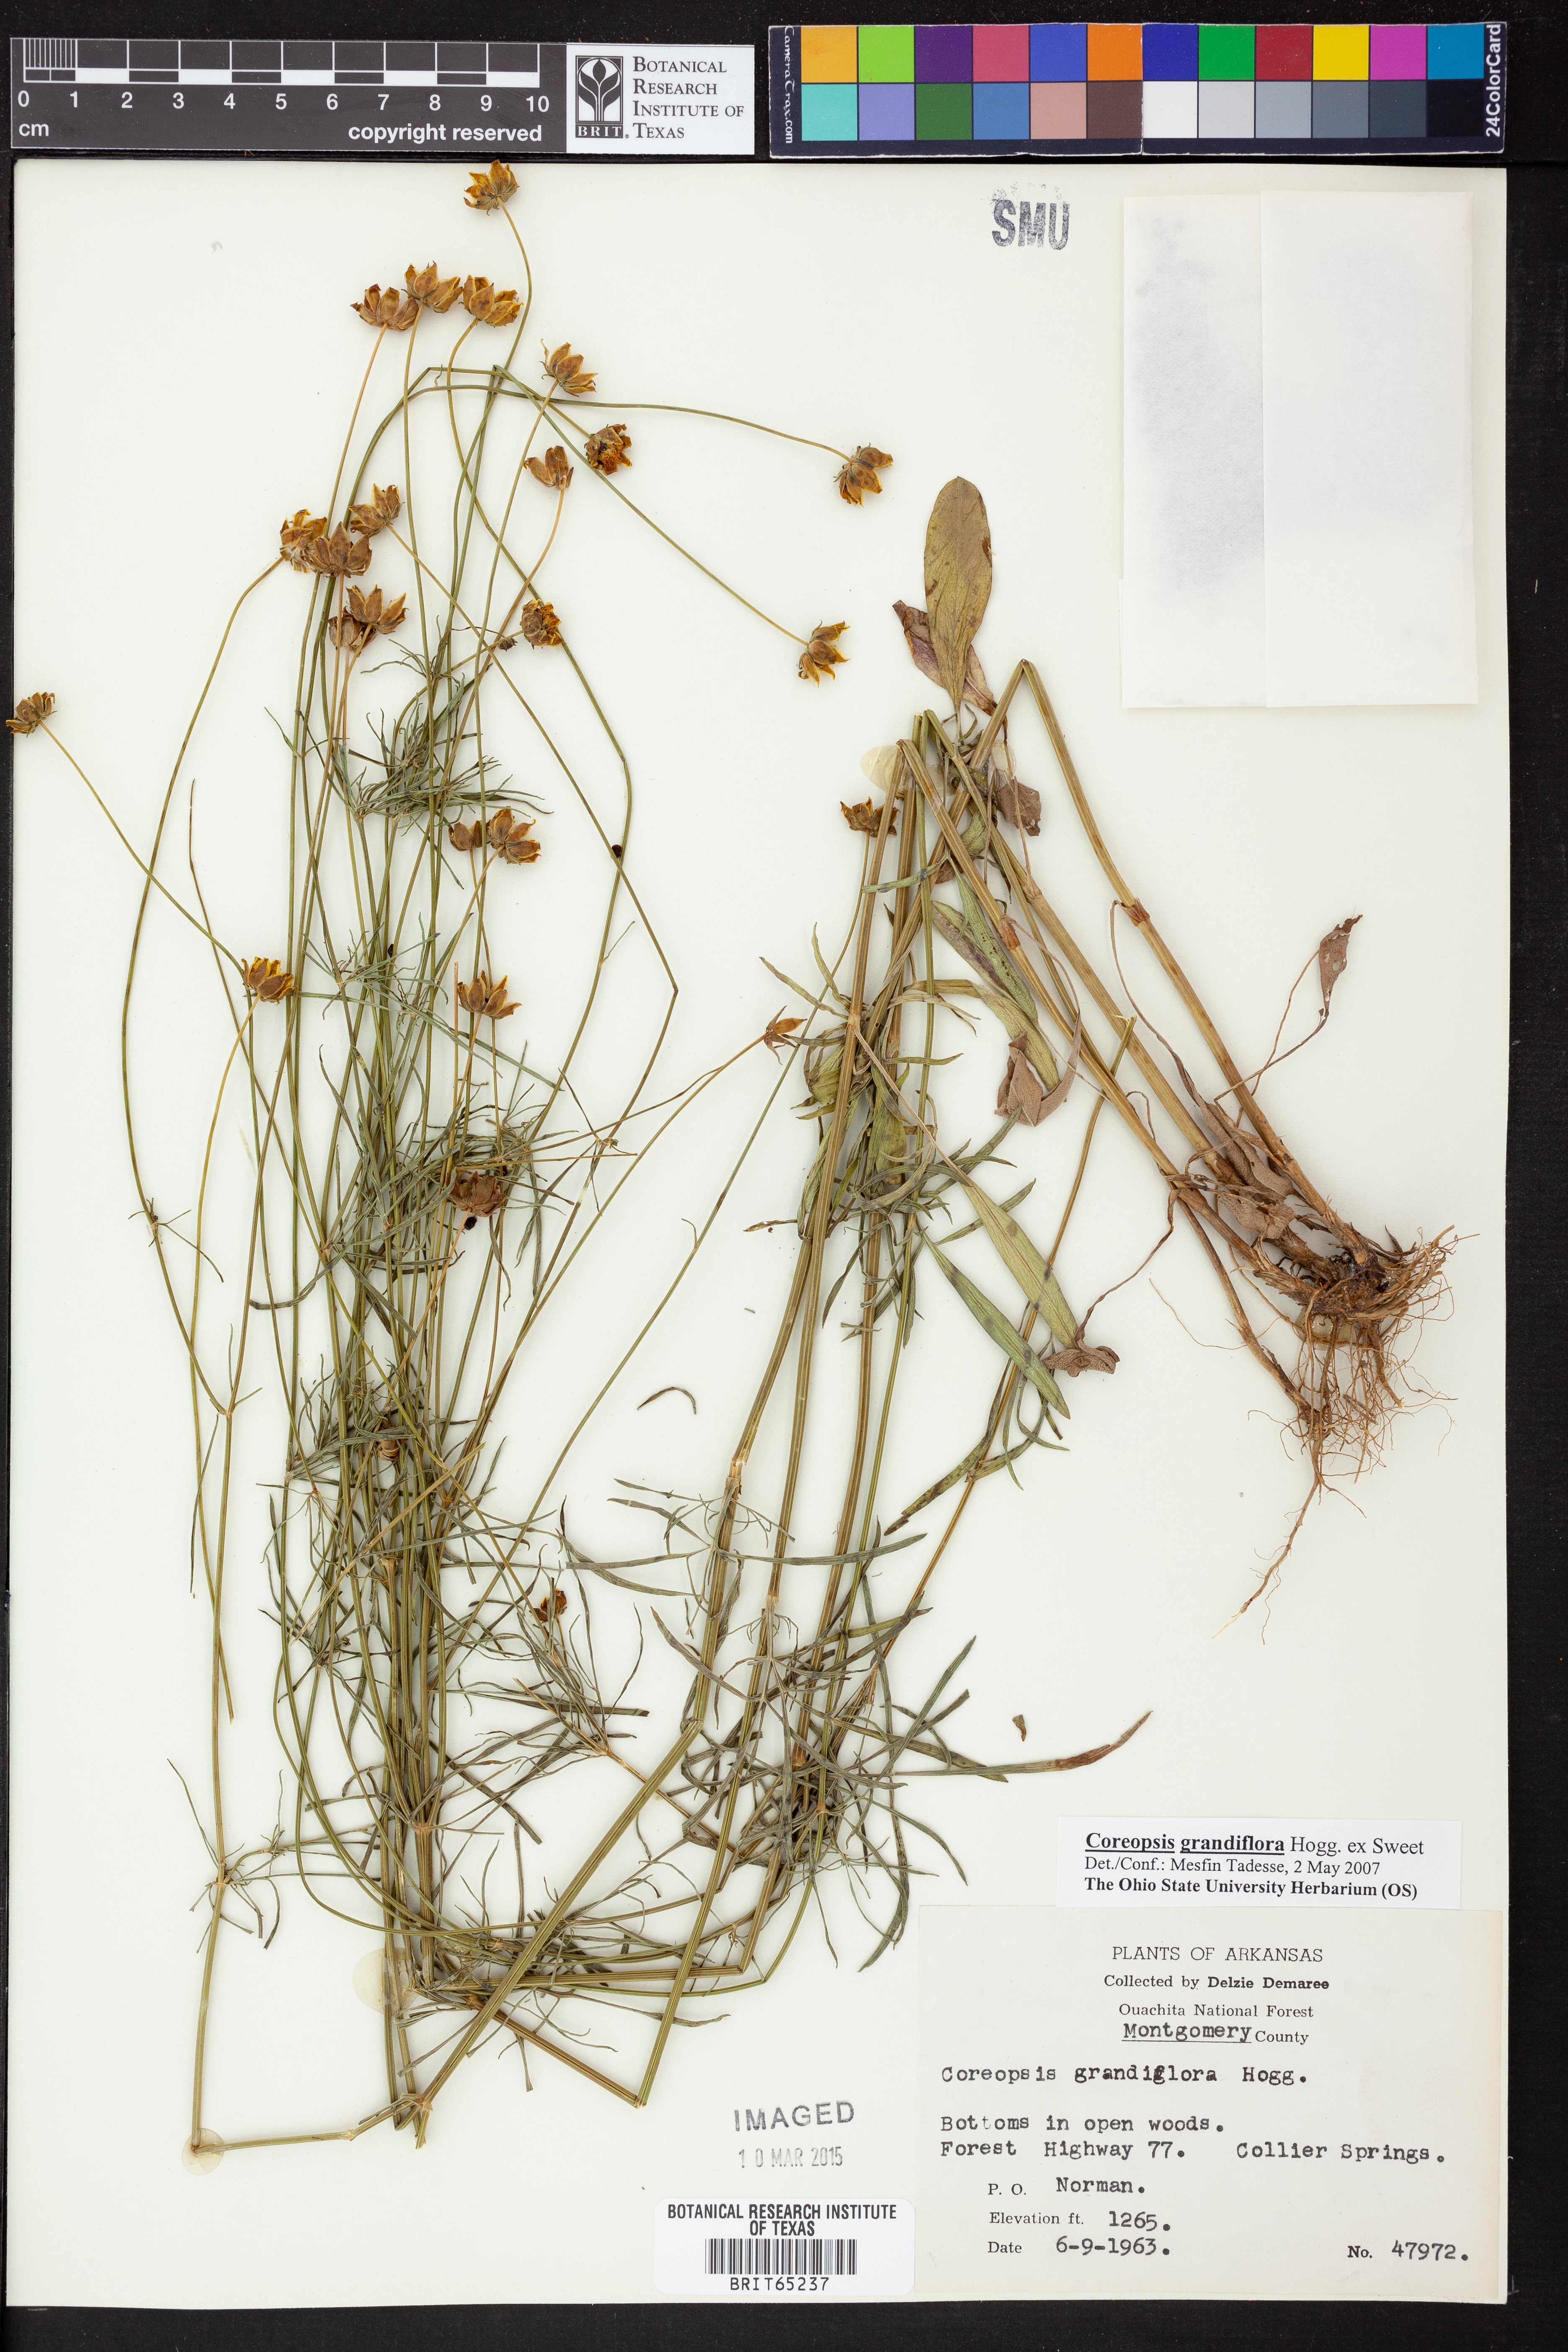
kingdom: Plantae
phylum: Tracheophyta
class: Magnoliopsida
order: Asterales
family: Asteraceae
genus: Coreopsis
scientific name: Coreopsis grandiflora
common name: Large-flowered tickseed
